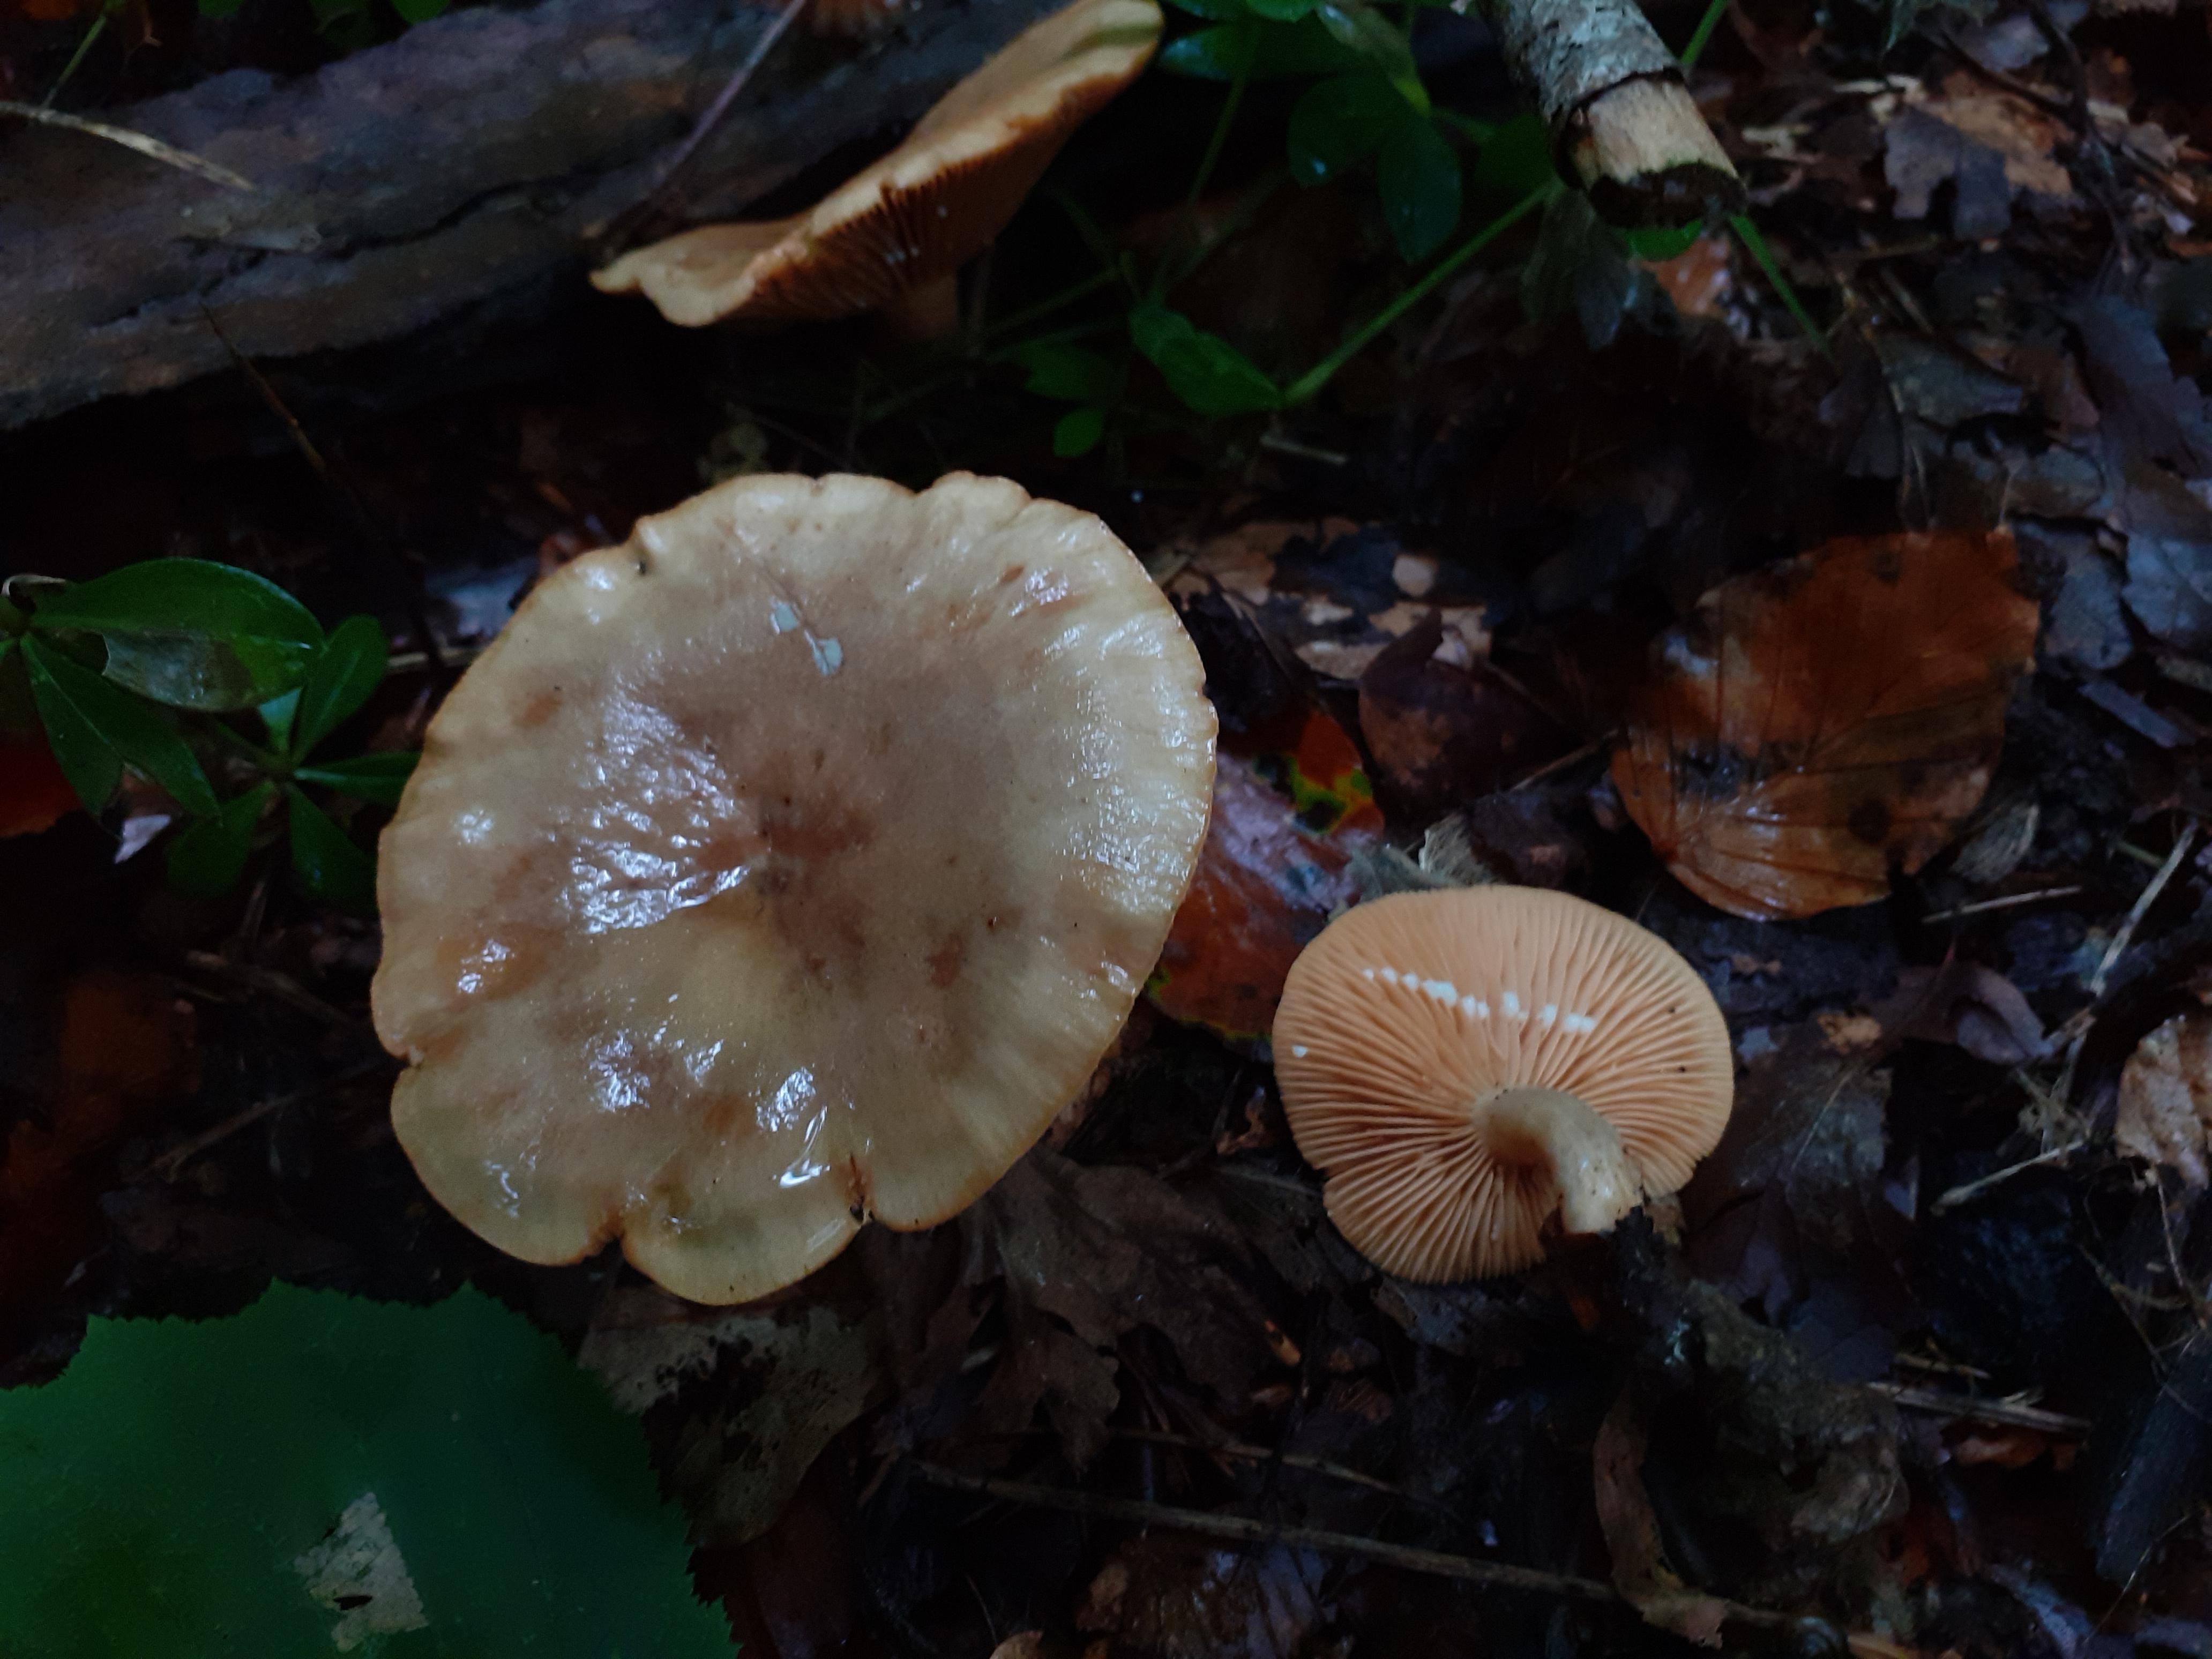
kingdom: Fungi
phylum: Basidiomycota
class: Agaricomycetes
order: Russulales
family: Russulaceae
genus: Lactarius
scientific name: Lactarius pyrogalus
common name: hassel-mælkehat
